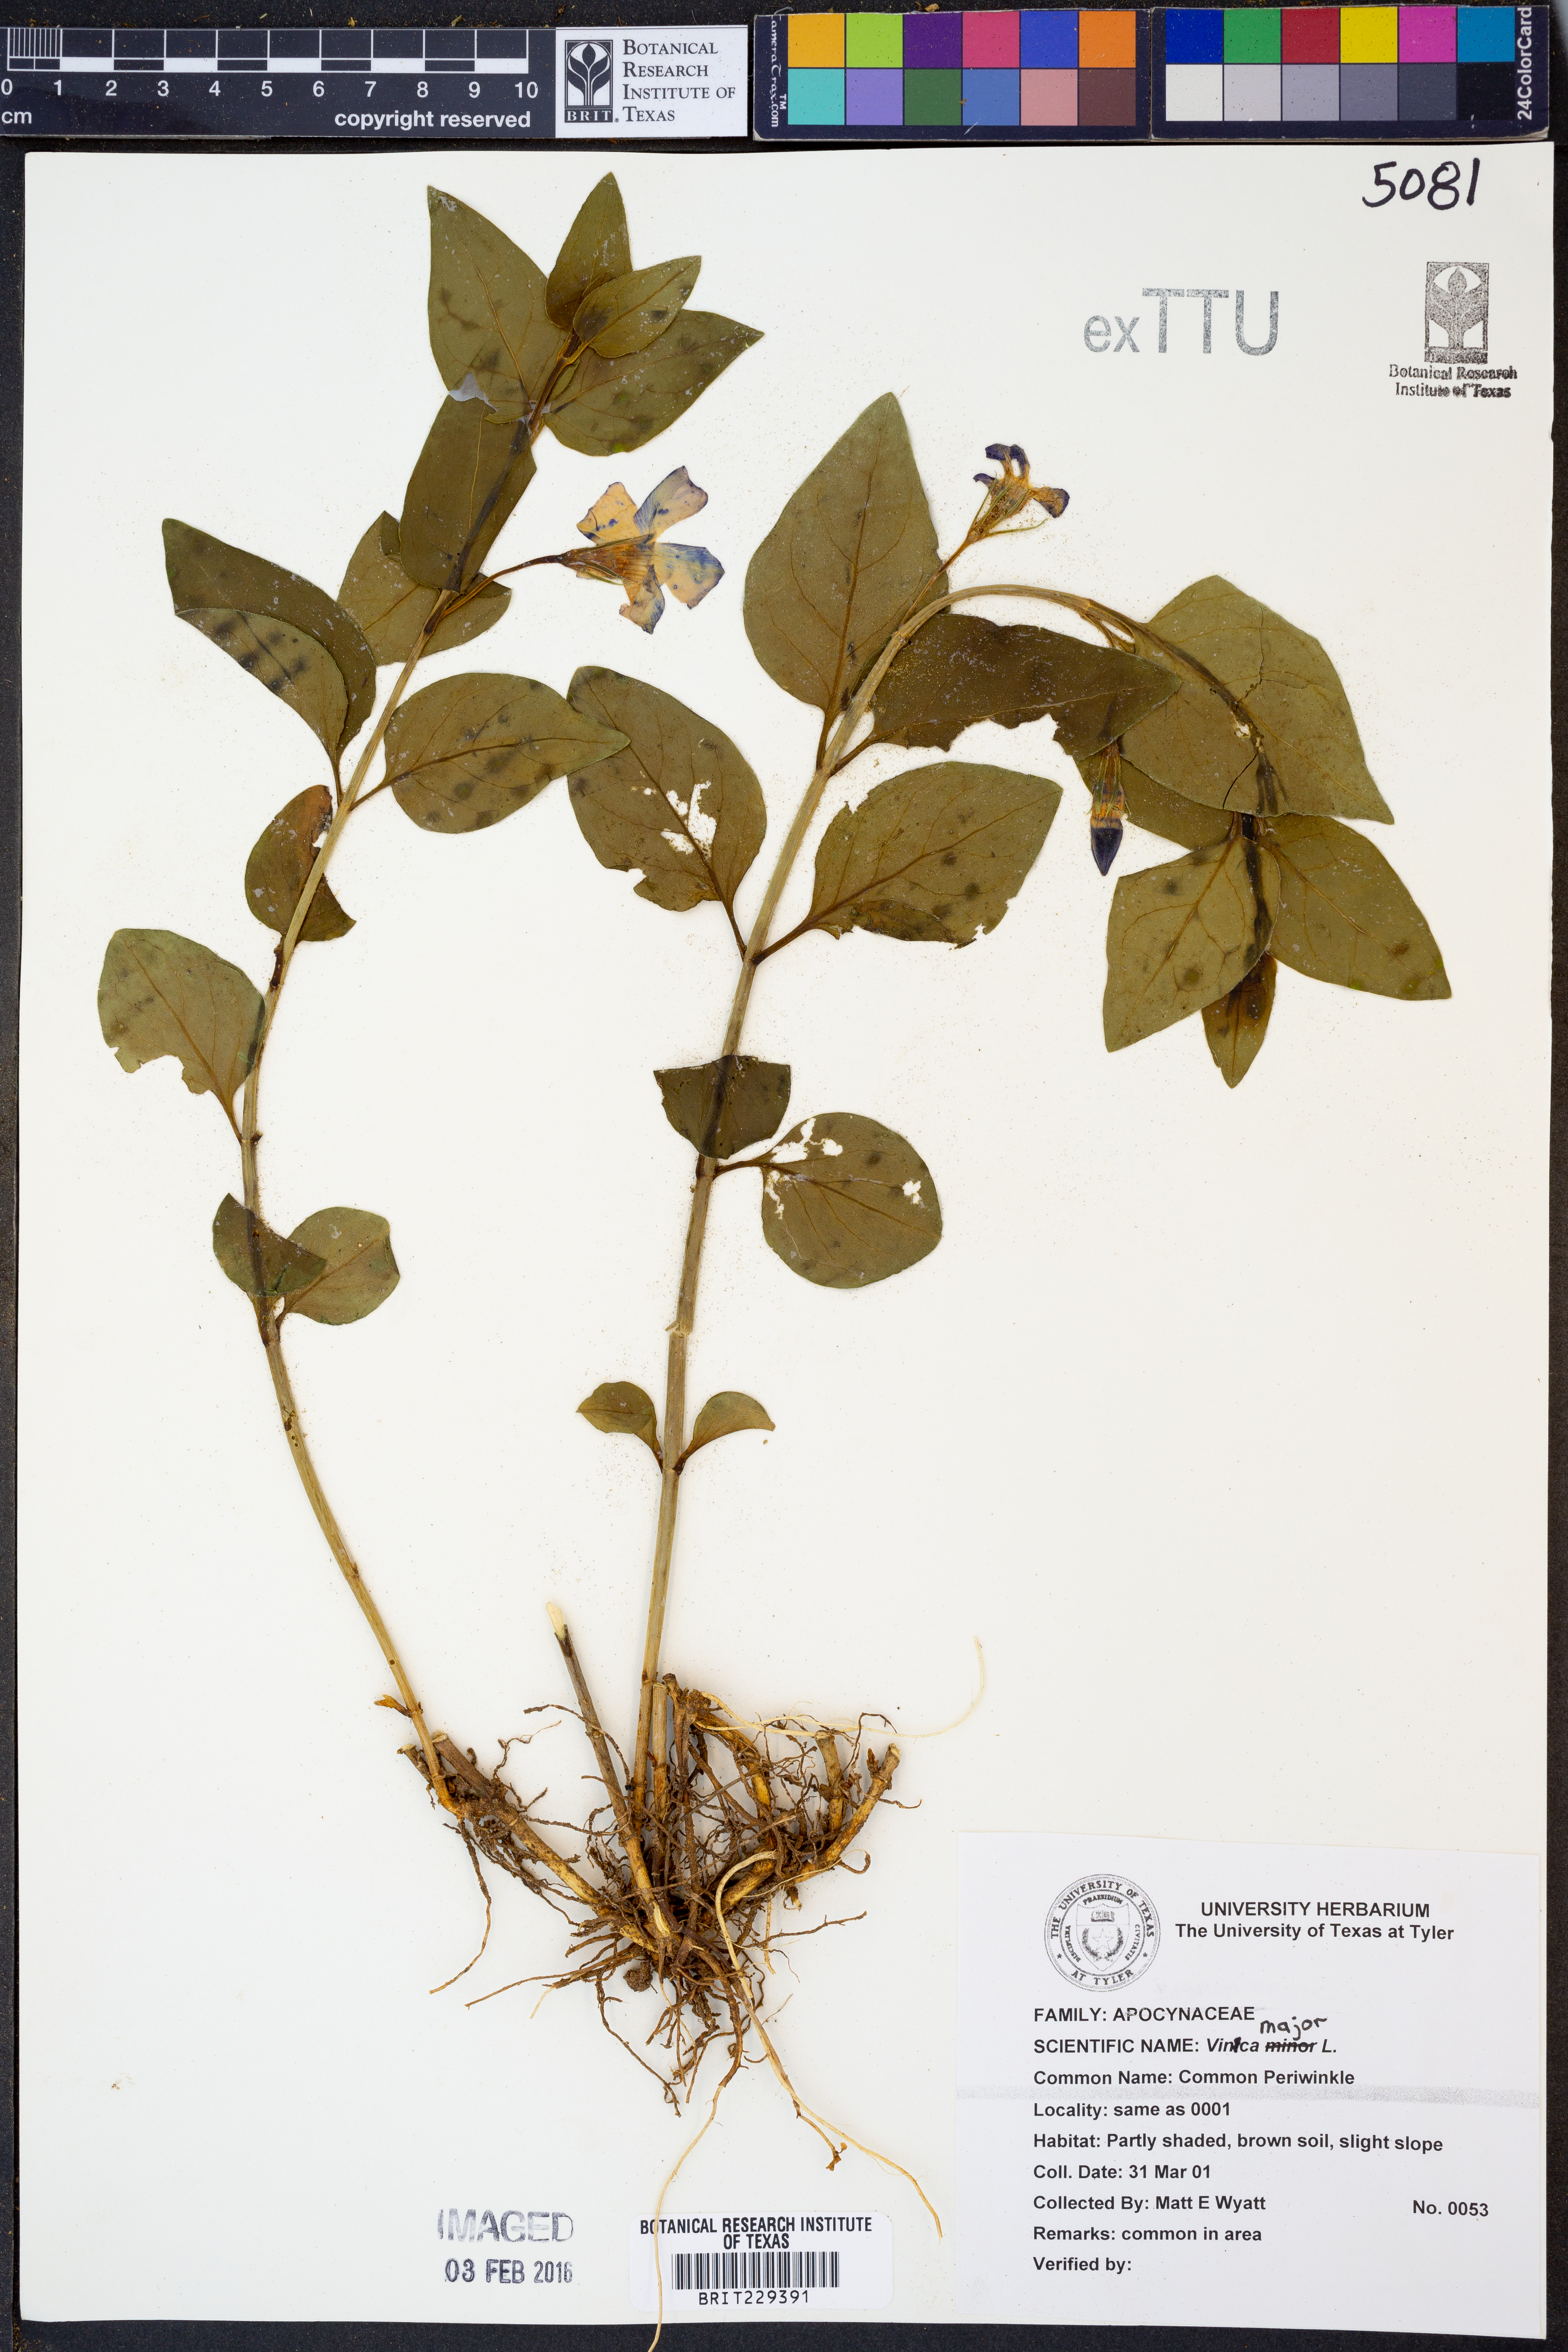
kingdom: Plantae
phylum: Tracheophyta
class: Magnoliopsida
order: Gentianales
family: Apocynaceae
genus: Vinca
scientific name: Vinca major
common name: Greater periwinkle
